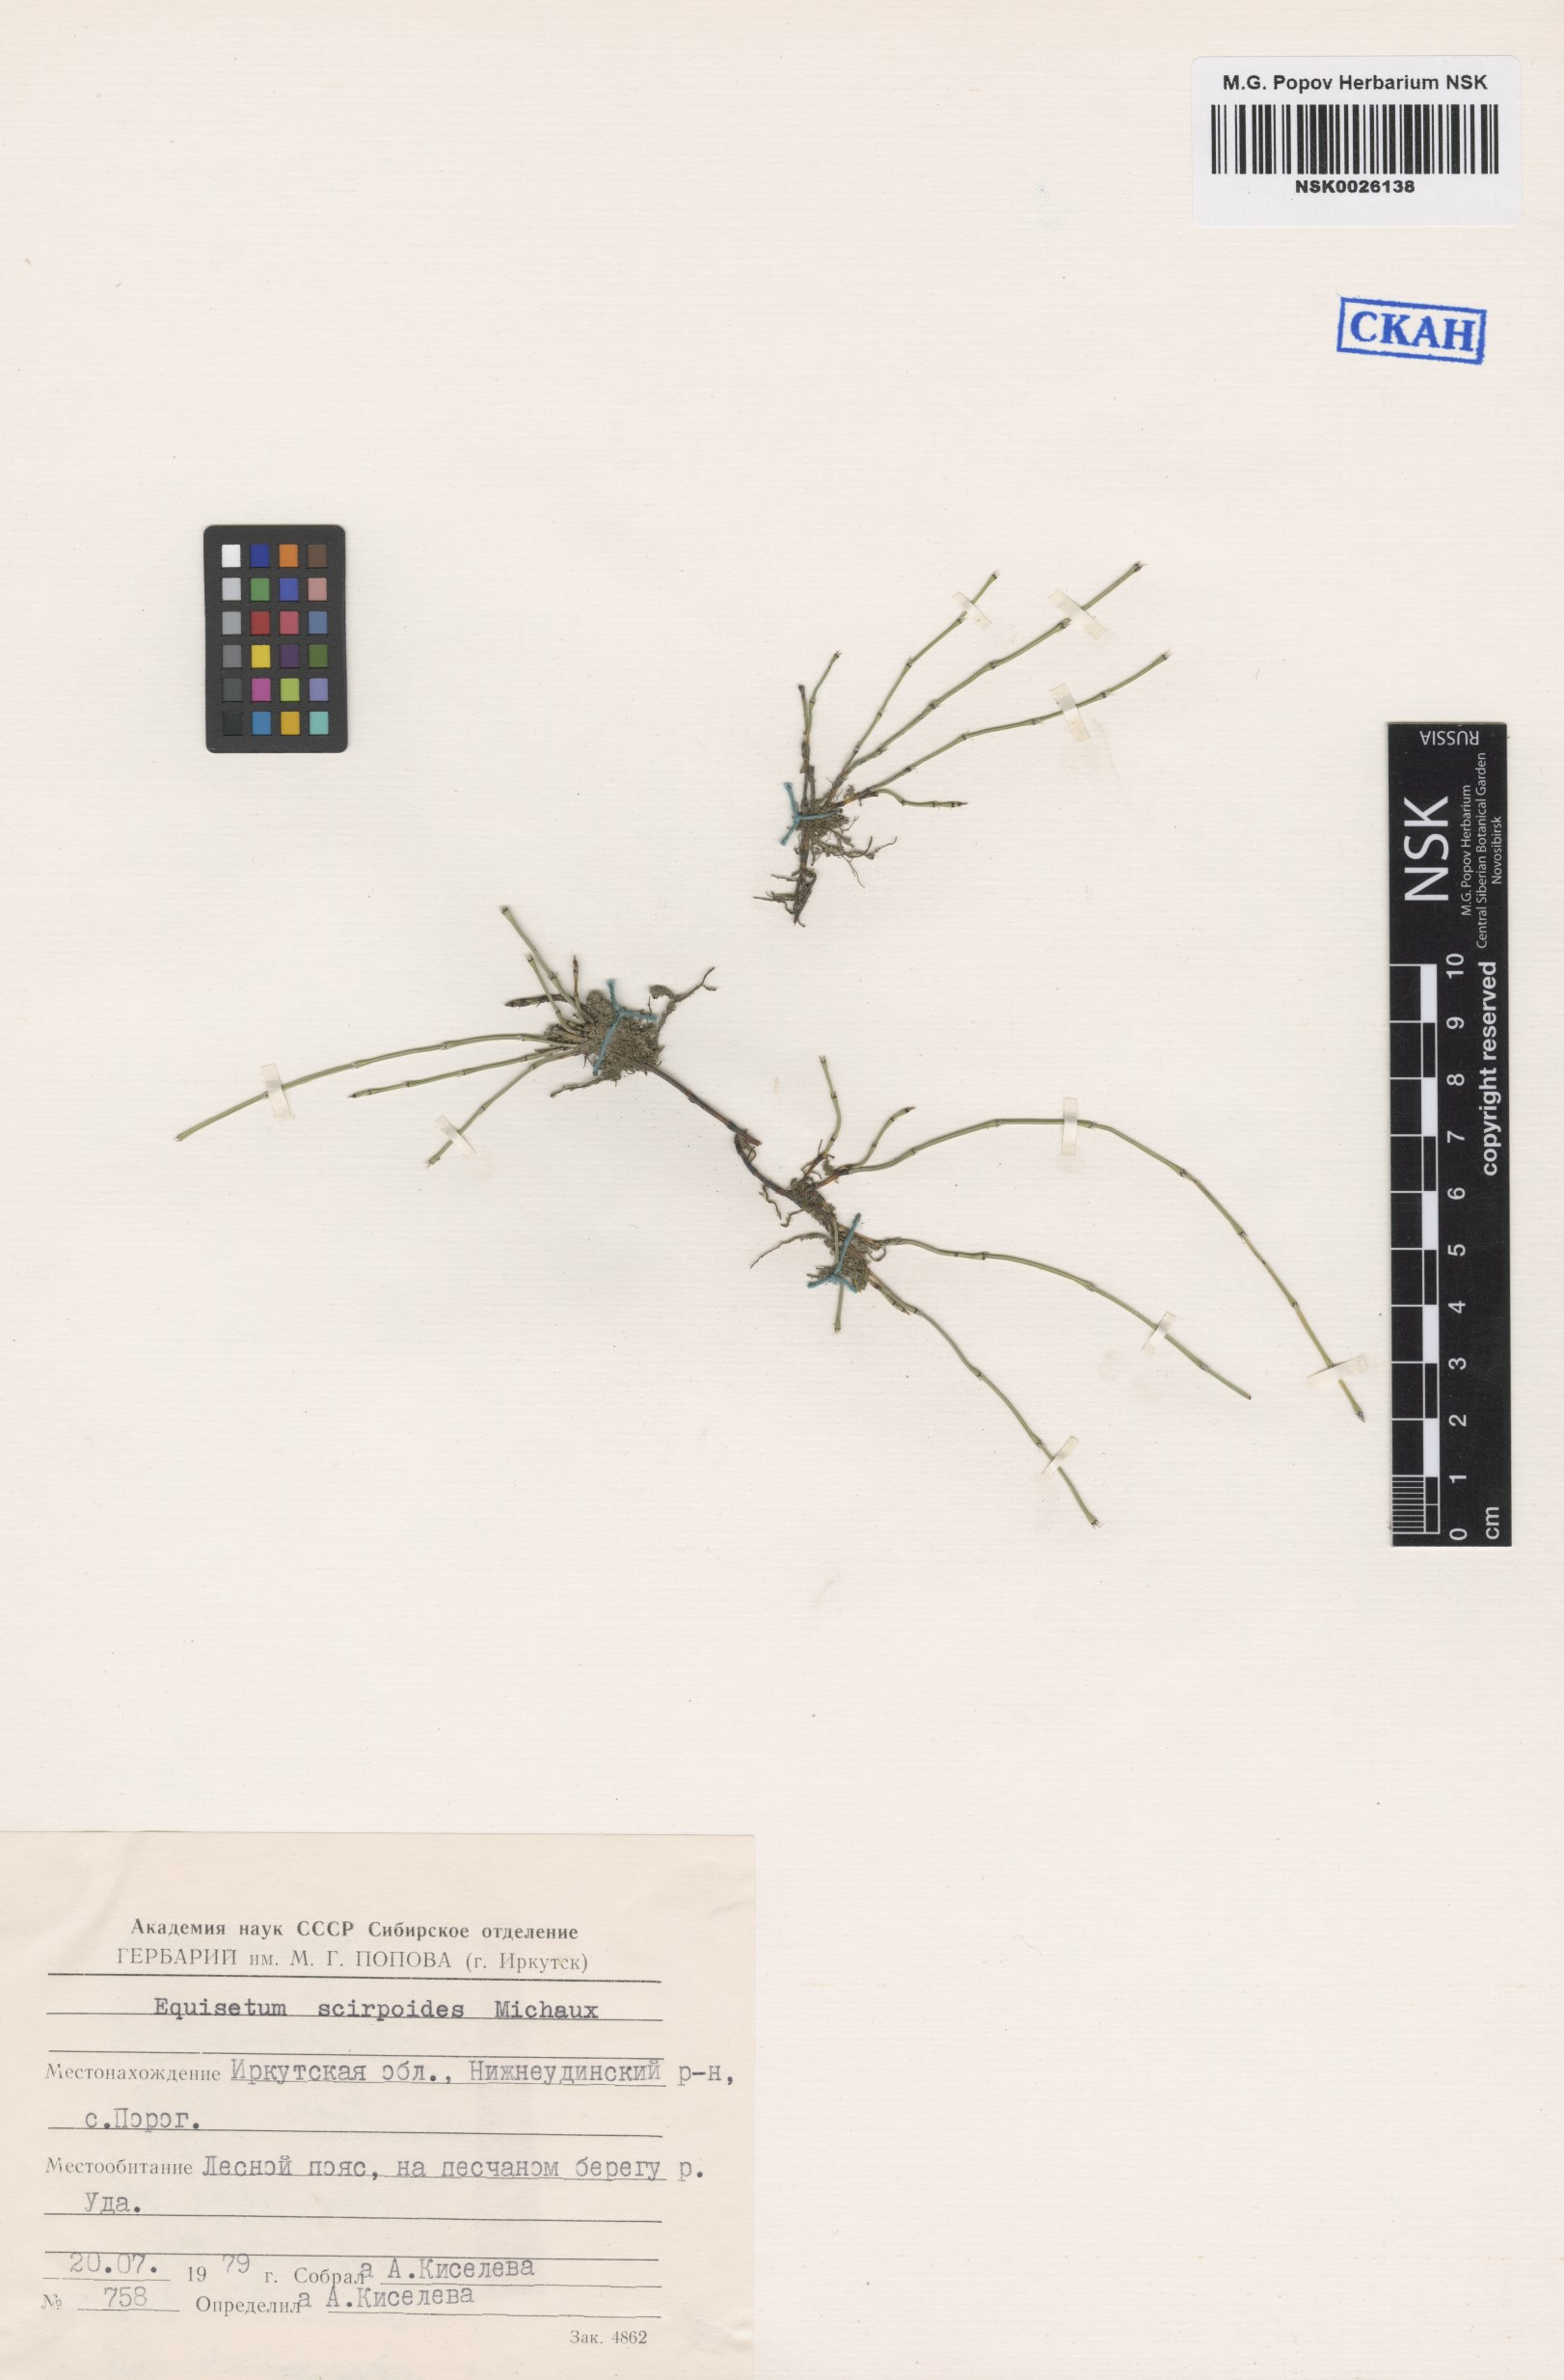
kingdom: Plantae
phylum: Tracheophyta
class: Polypodiopsida
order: Equisetales
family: Equisetaceae
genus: Equisetum
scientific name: Equisetum scirpoides
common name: Delicate horsetail
